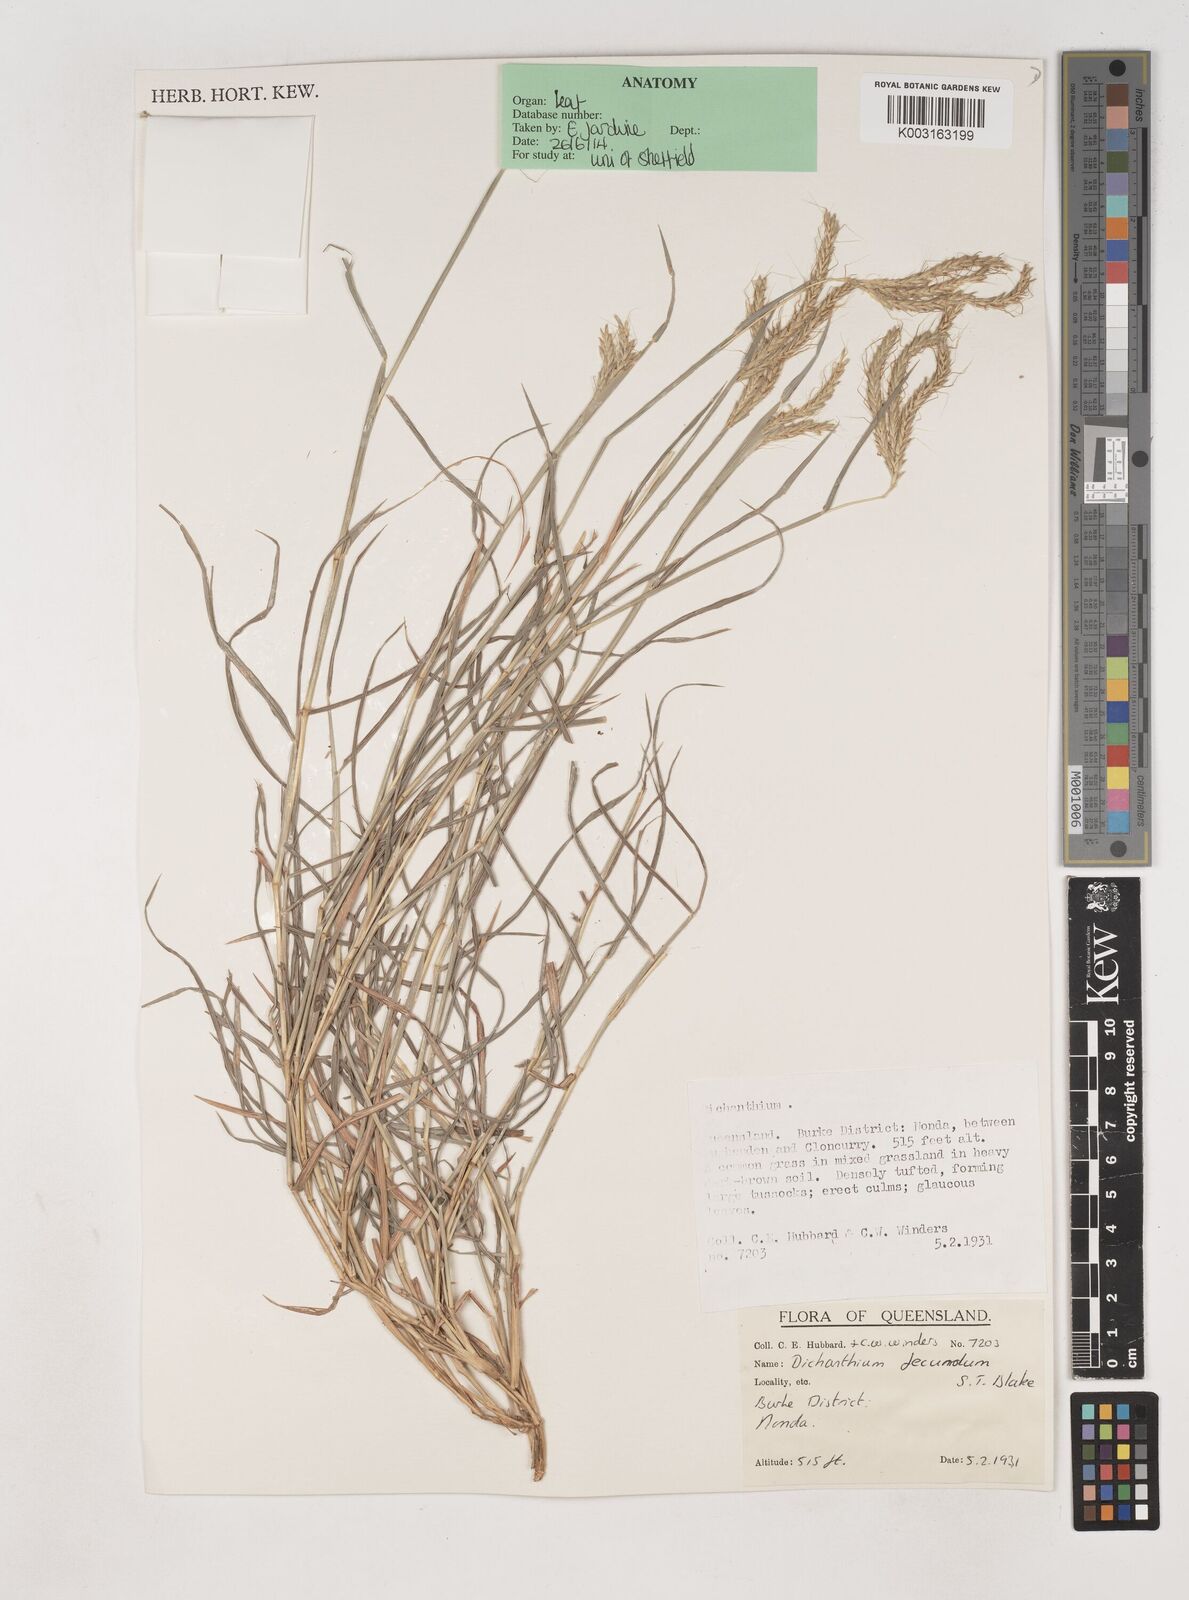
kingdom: Plantae
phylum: Tracheophyta
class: Liliopsida
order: Poales
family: Poaceae
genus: Dichanthium
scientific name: Dichanthium fecundum
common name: Bundle-bundle
